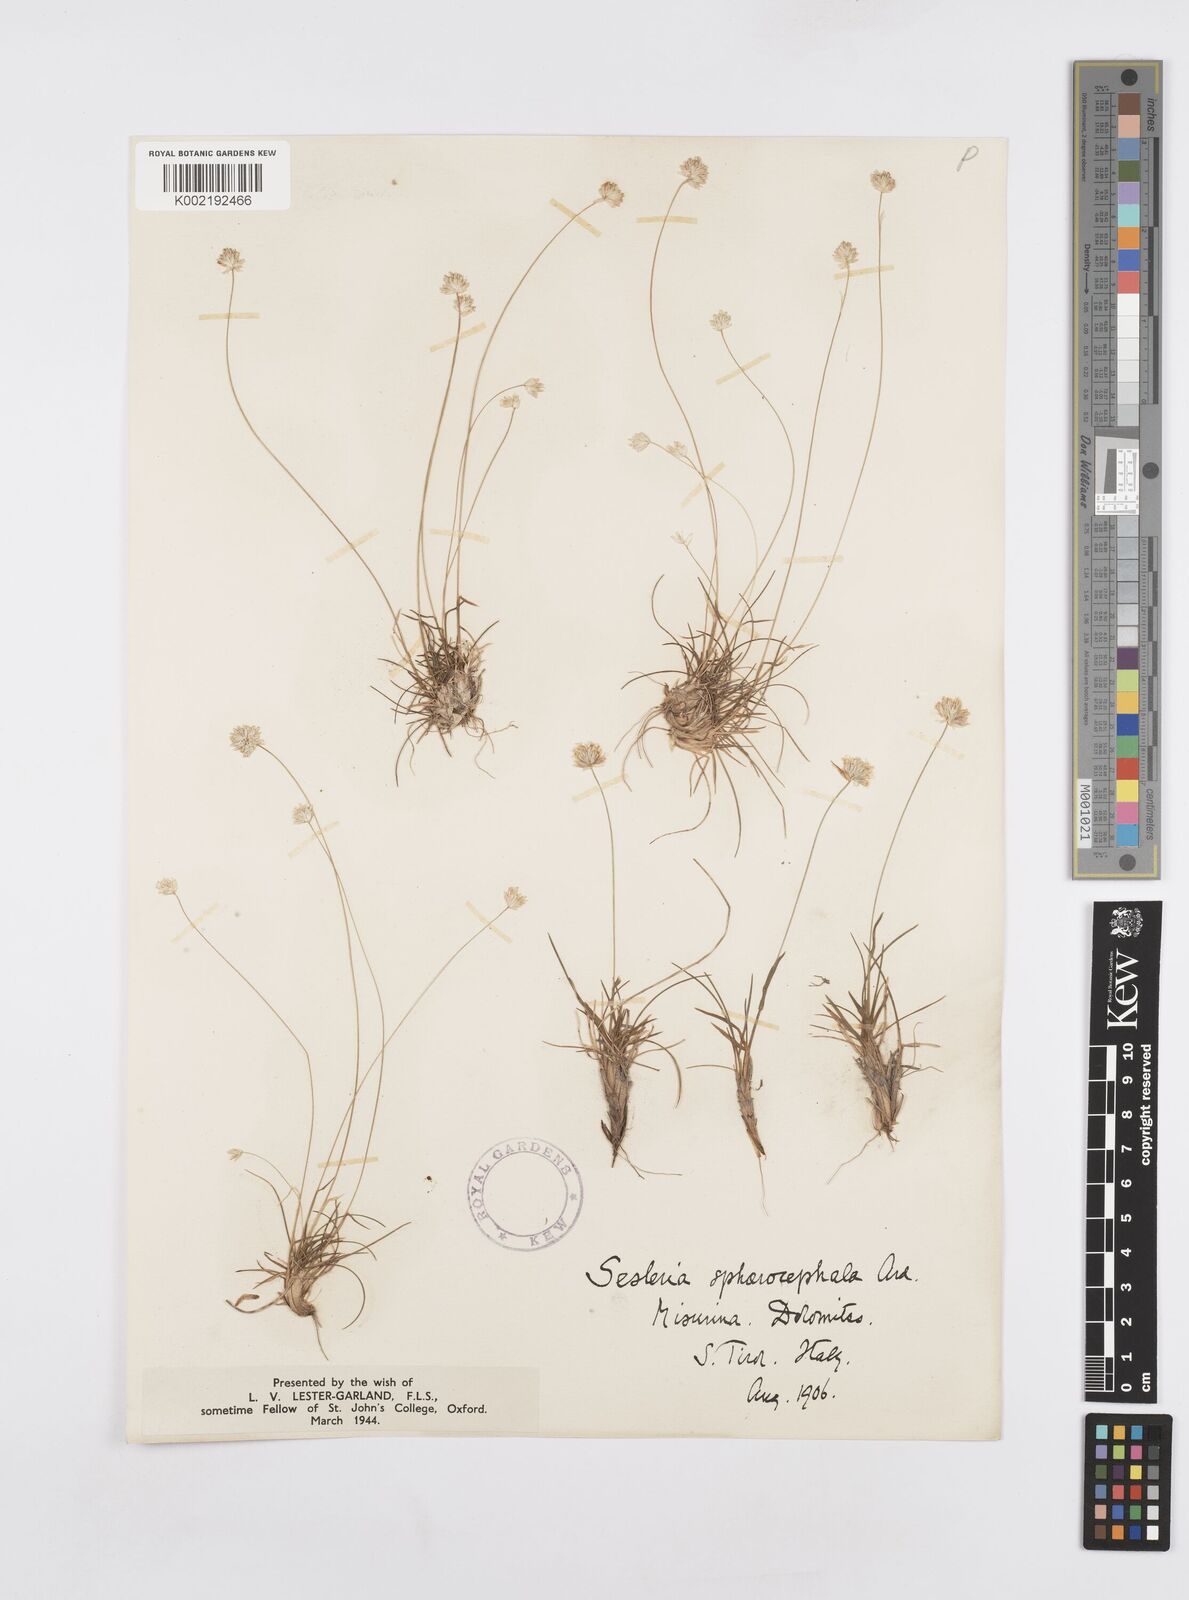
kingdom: Plantae
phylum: Tracheophyta
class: Liliopsida
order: Poales
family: Poaceae
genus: Sesleriella
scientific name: Sesleriella sphaerocephala
